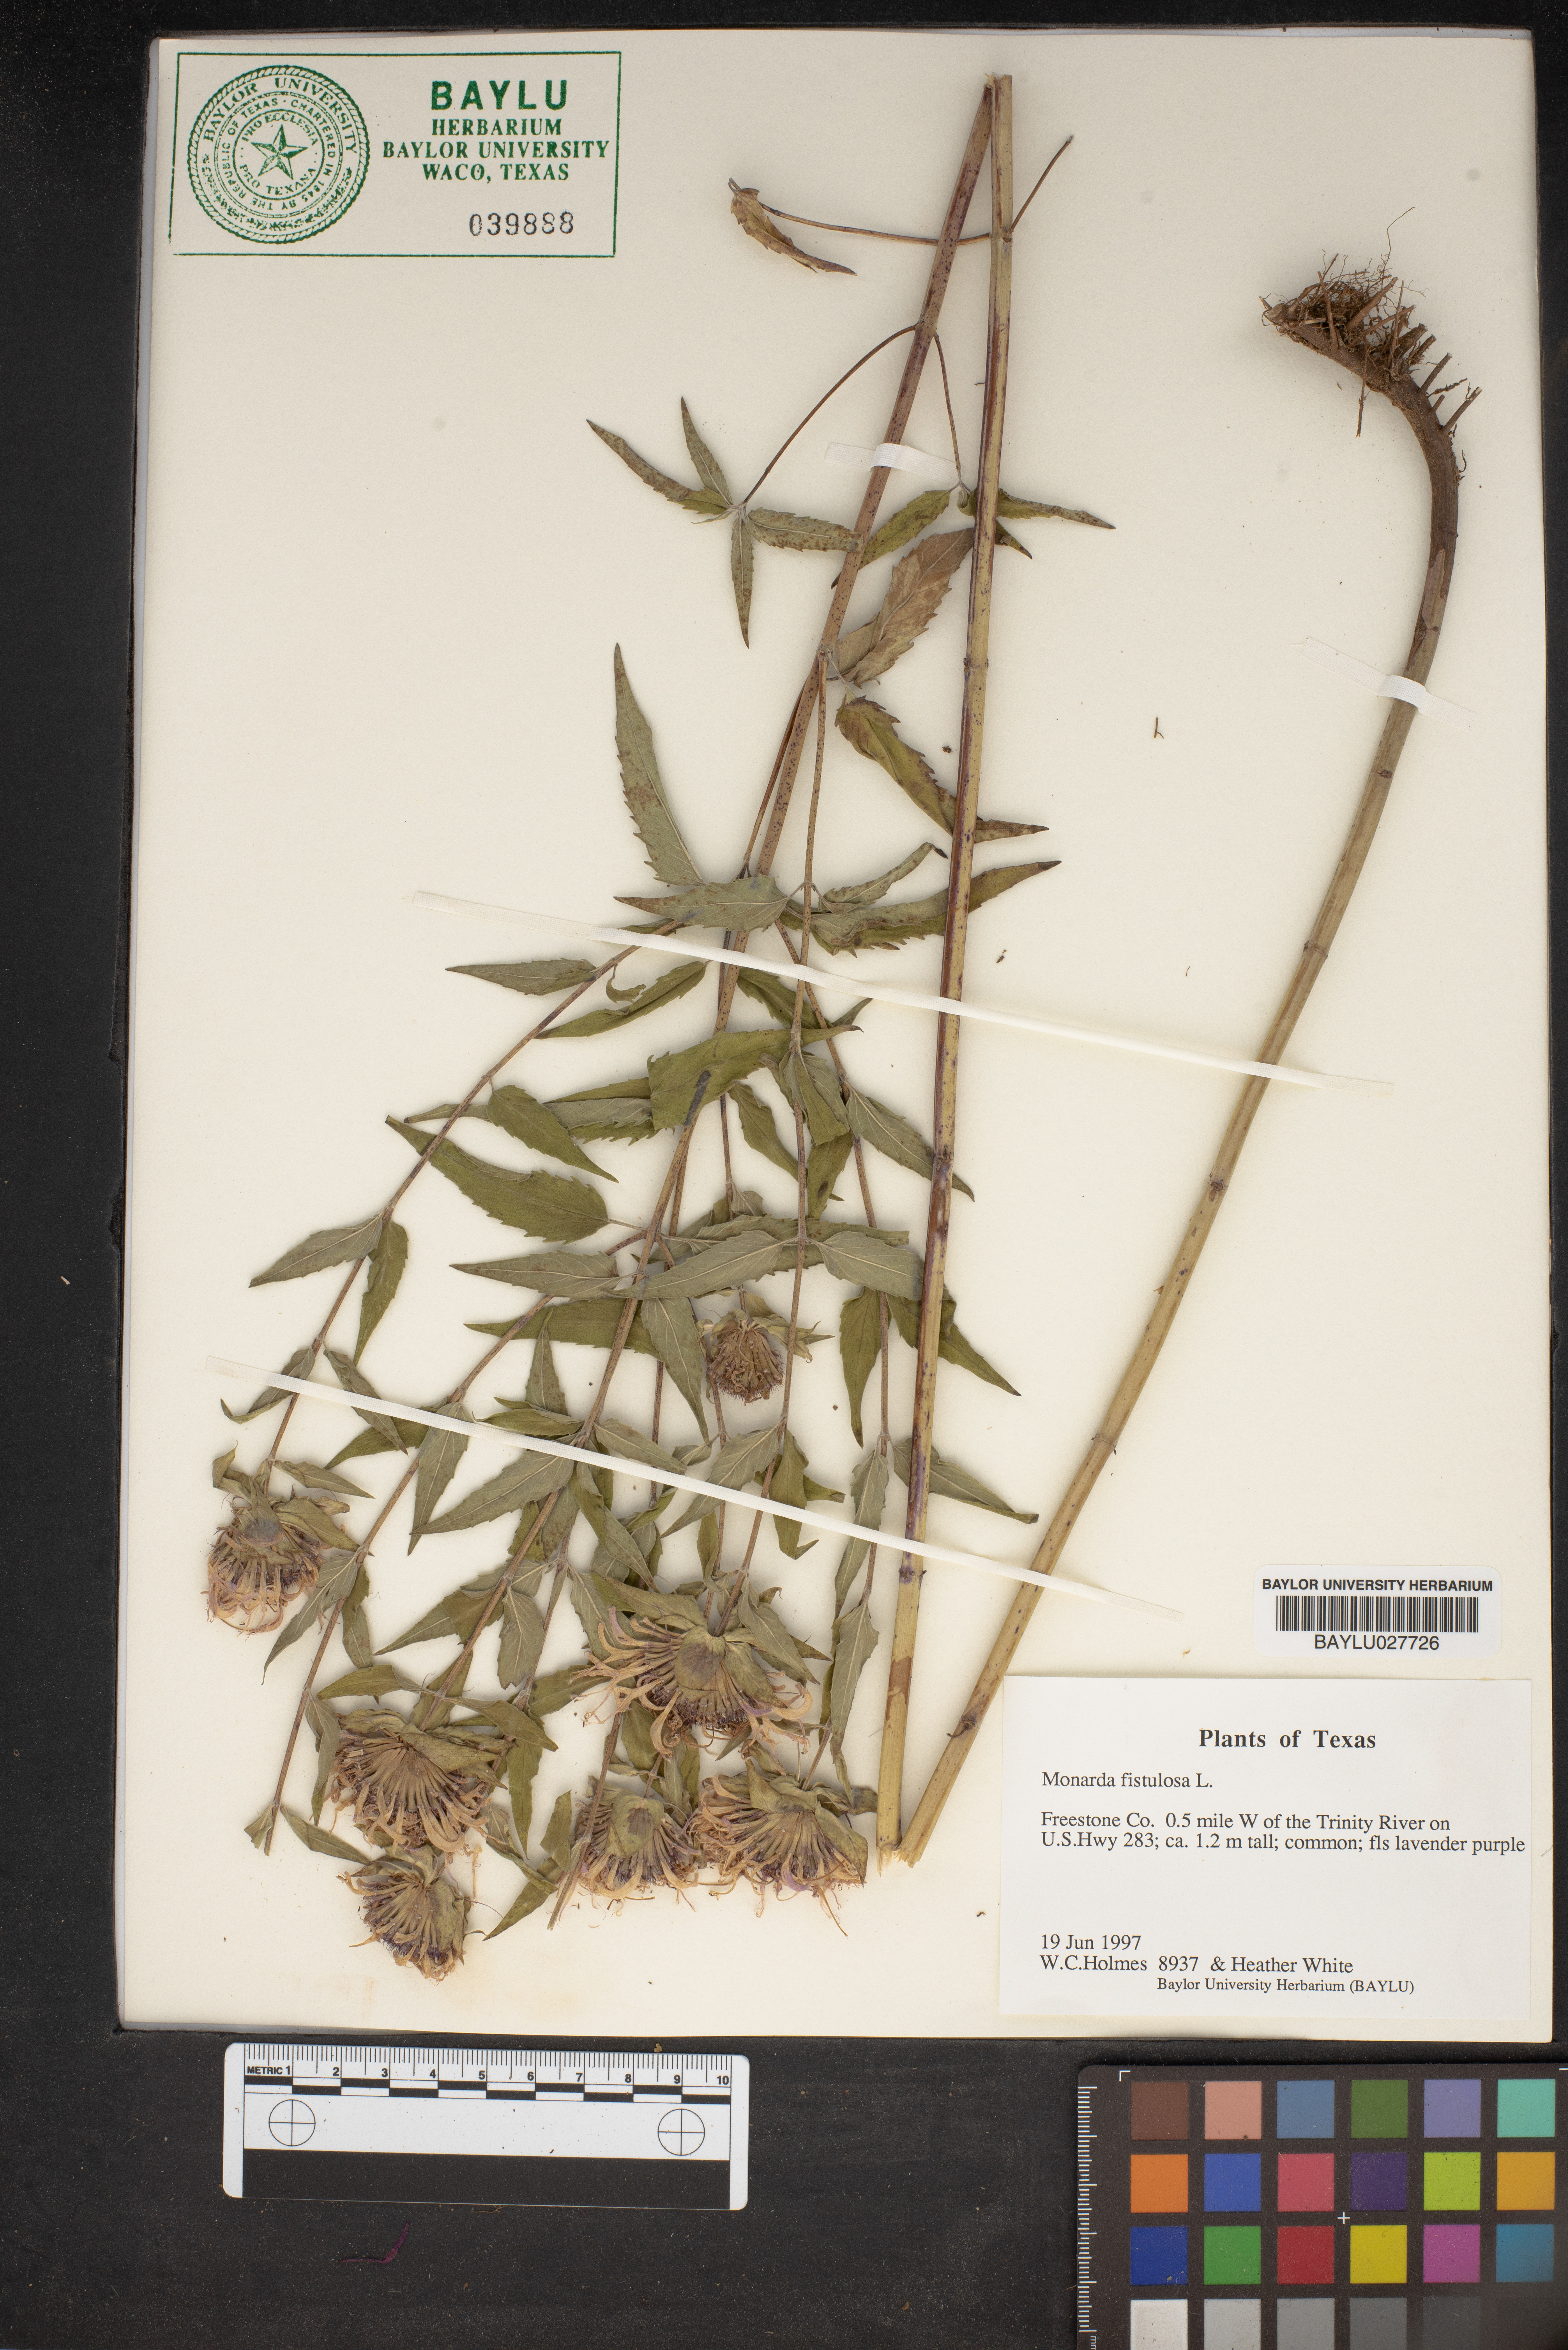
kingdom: Plantae
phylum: Tracheophyta
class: Magnoliopsida
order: Lamiales
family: Lamiaceae
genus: Monarda
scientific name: Monarda fistulosa
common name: Purple beebalm
